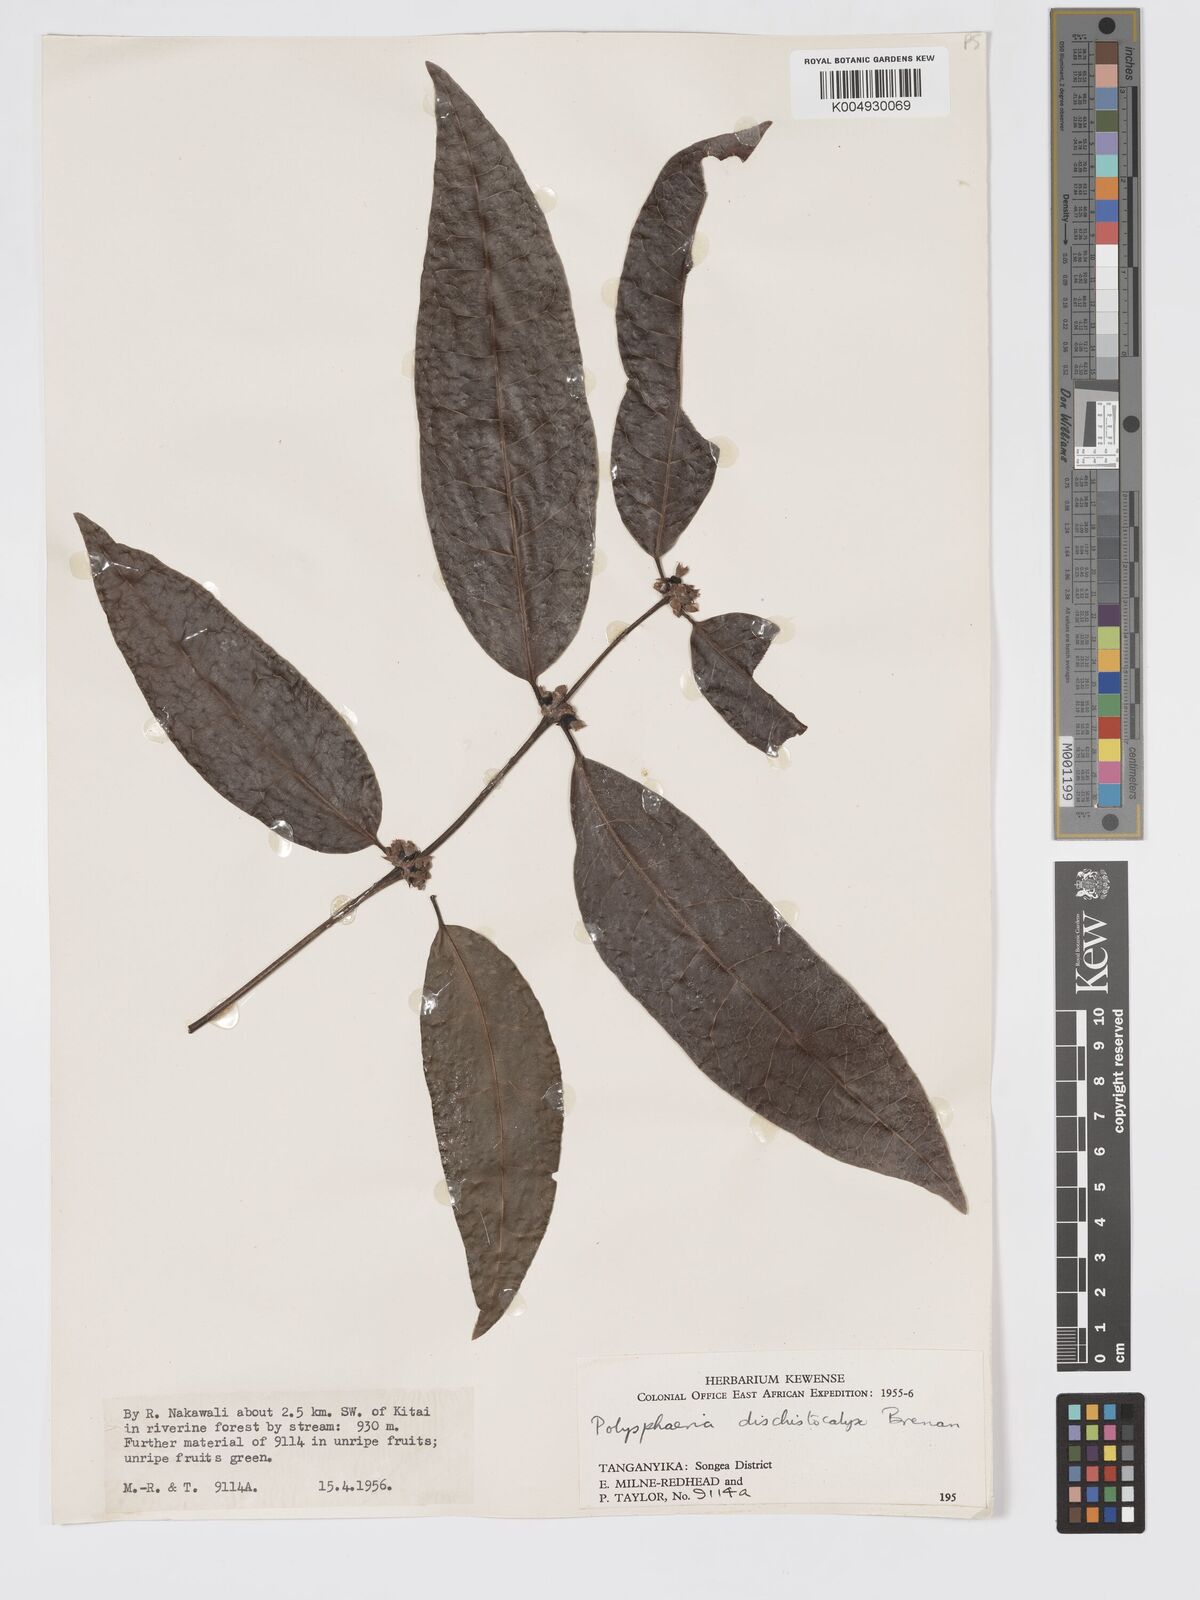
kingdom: Plantae
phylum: Tracheophyta
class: Magnoliopsida
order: Gentianales
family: Rubiaceae
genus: Polysphaeria
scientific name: Polysphaeria dischistocalyx
